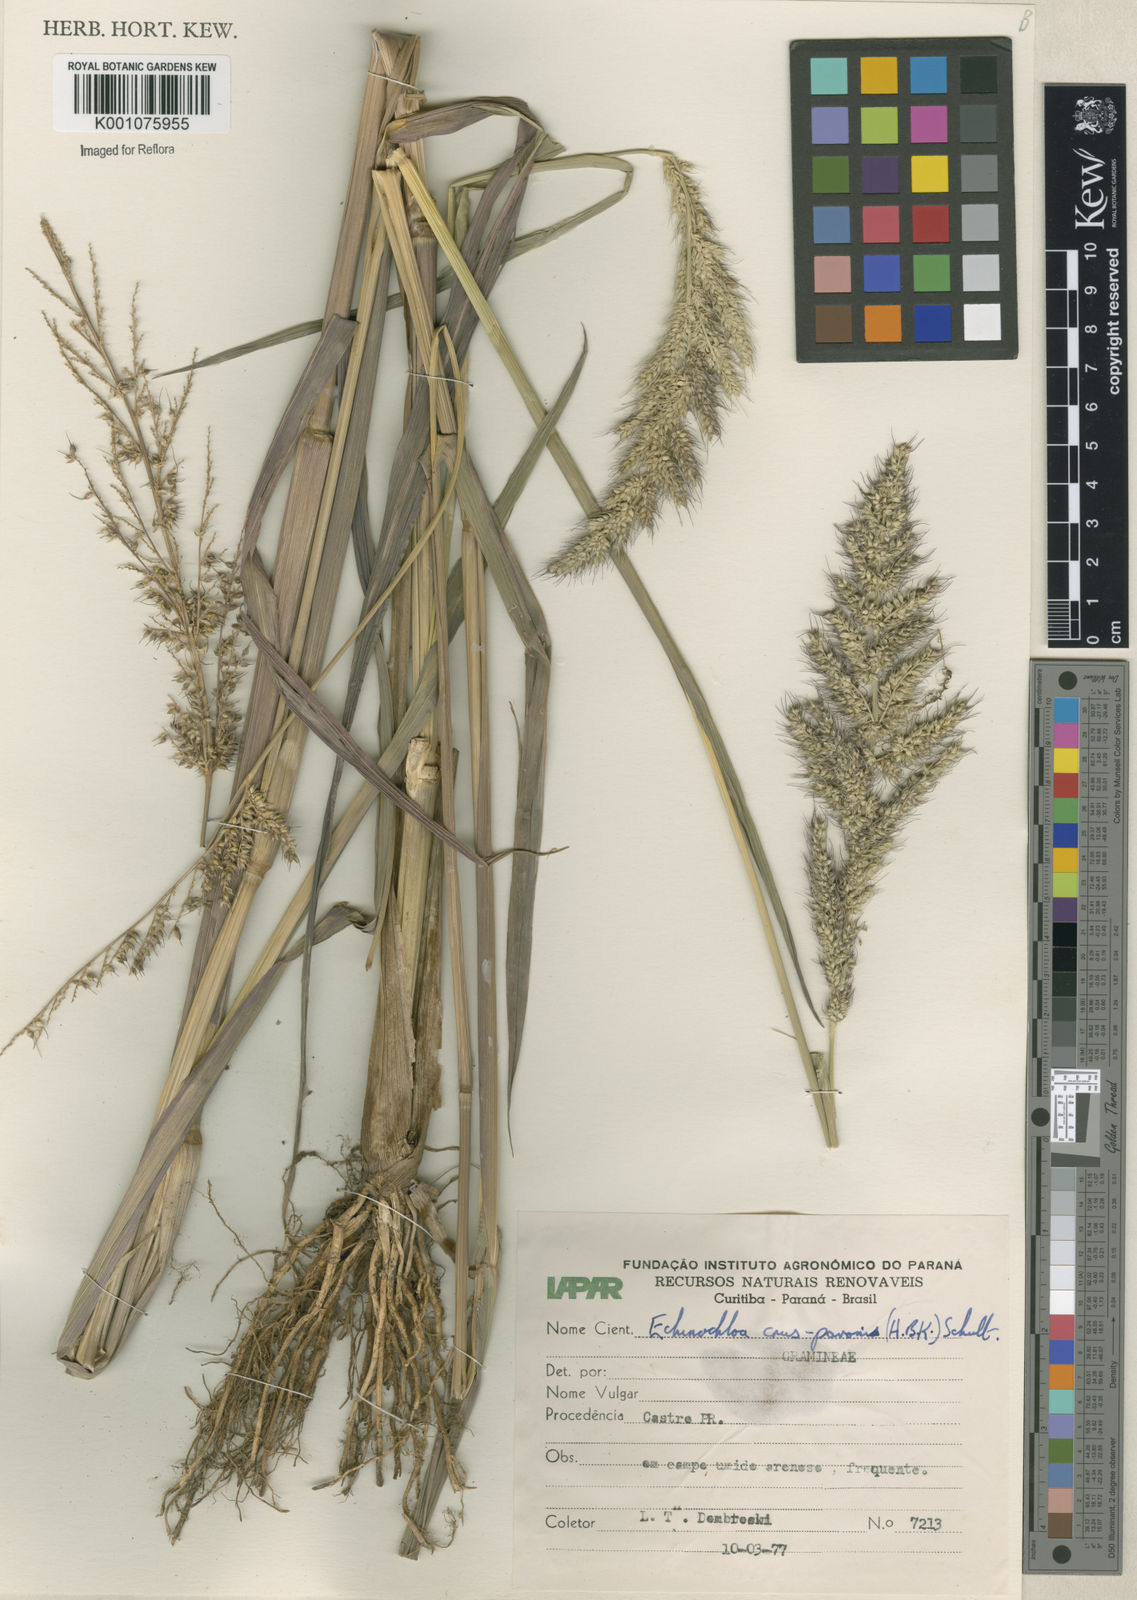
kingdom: Plantae
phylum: Tracheophyta
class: Liliopsida
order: Poales
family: Poaceae
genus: Echinochloa
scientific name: Echinochloa crus-pavonis
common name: Gulf cockspur grass
